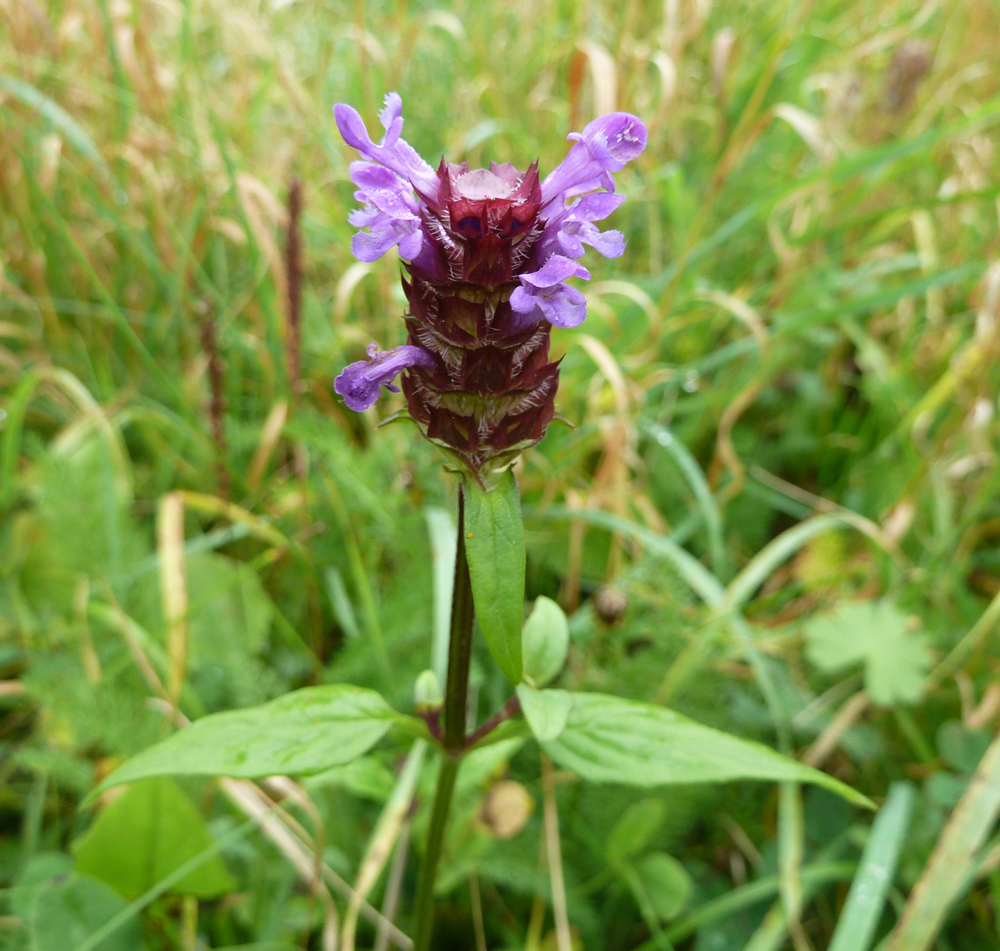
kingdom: Plantae
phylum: Tracheophyta
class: Magnoliopsida
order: Lamiales
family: Lamiaceae
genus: Prunella
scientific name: Prunella vulgaris
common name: Heal-all
